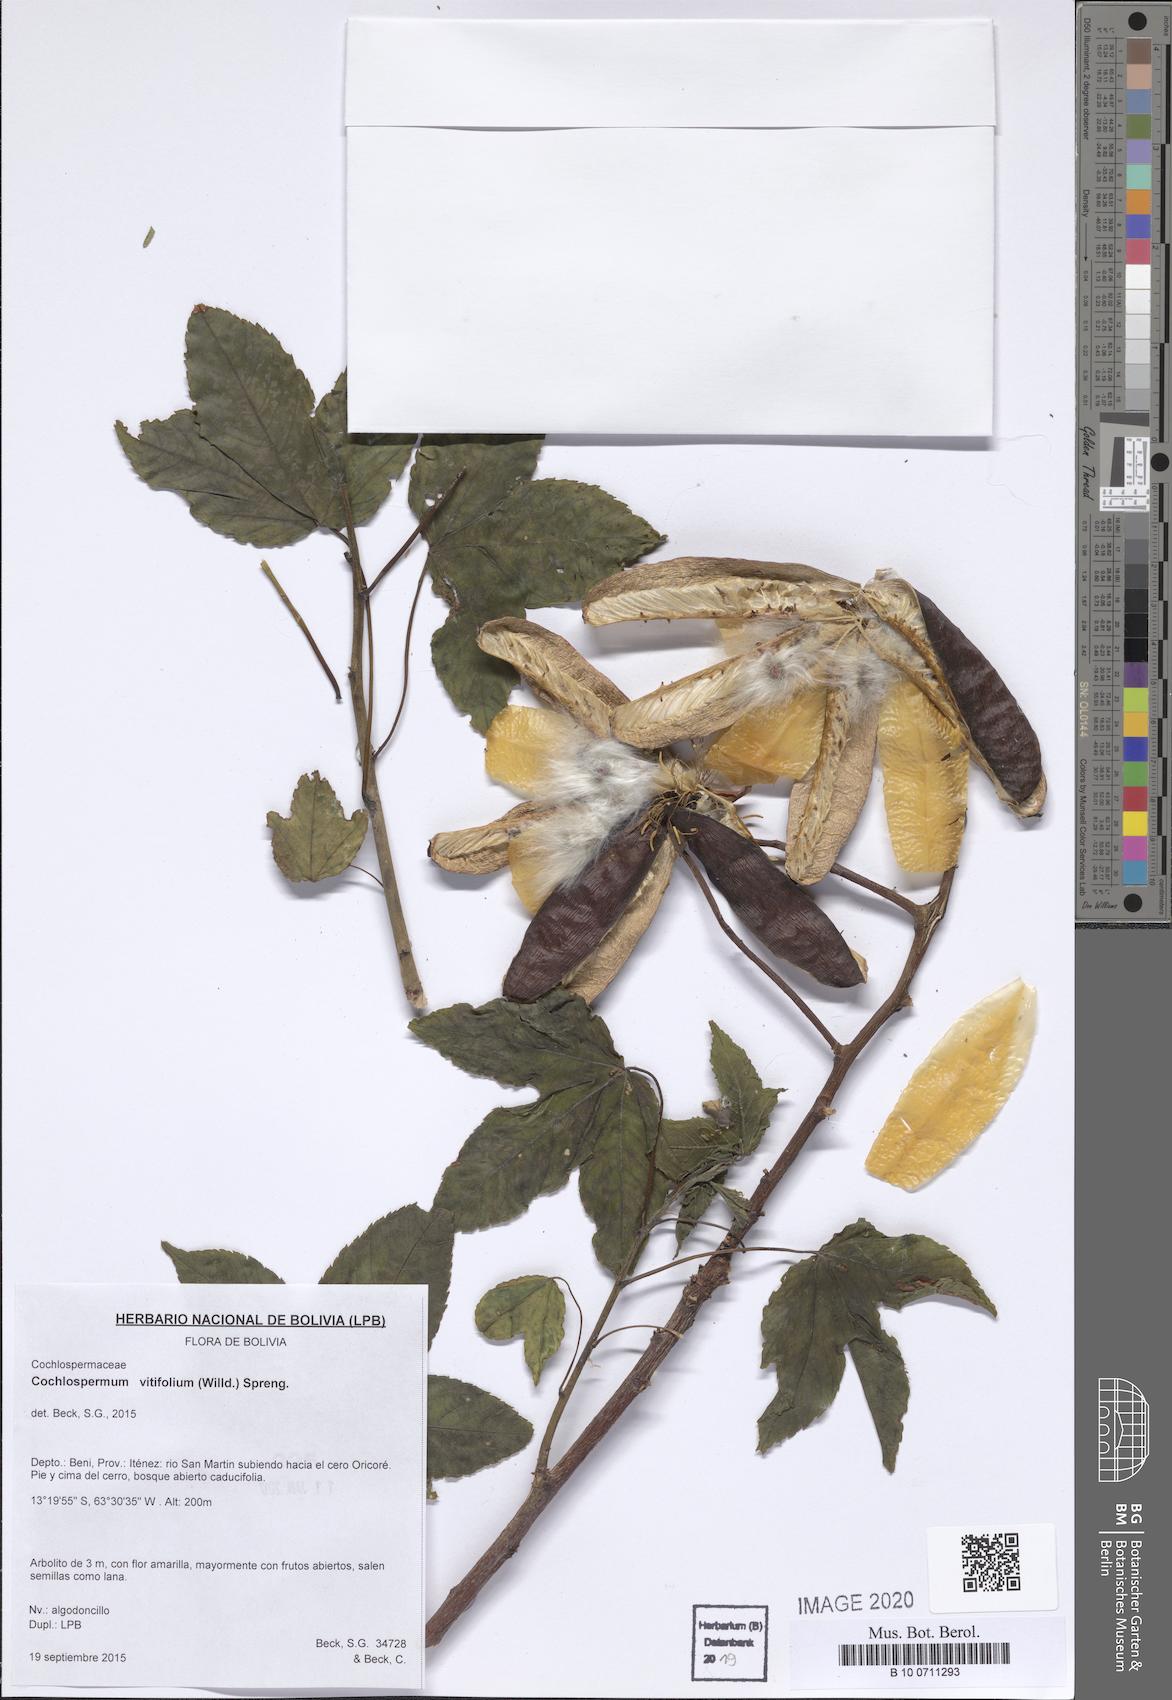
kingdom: Plantae
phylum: Tracheophyta
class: Magnoliopsida
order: Malvales
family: Cochlospermaceae
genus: Cochlospermum
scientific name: Cochlospermum vitifolium
